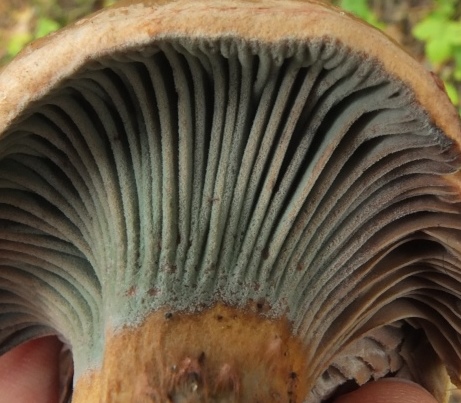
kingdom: Fungi
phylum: Ascomycota
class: Sordariomycetes
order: Hypocreales
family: Hypocreaceae
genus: Hypomyces
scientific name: Hypomyces luteovirens
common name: gulgrøn snylteskorpe
